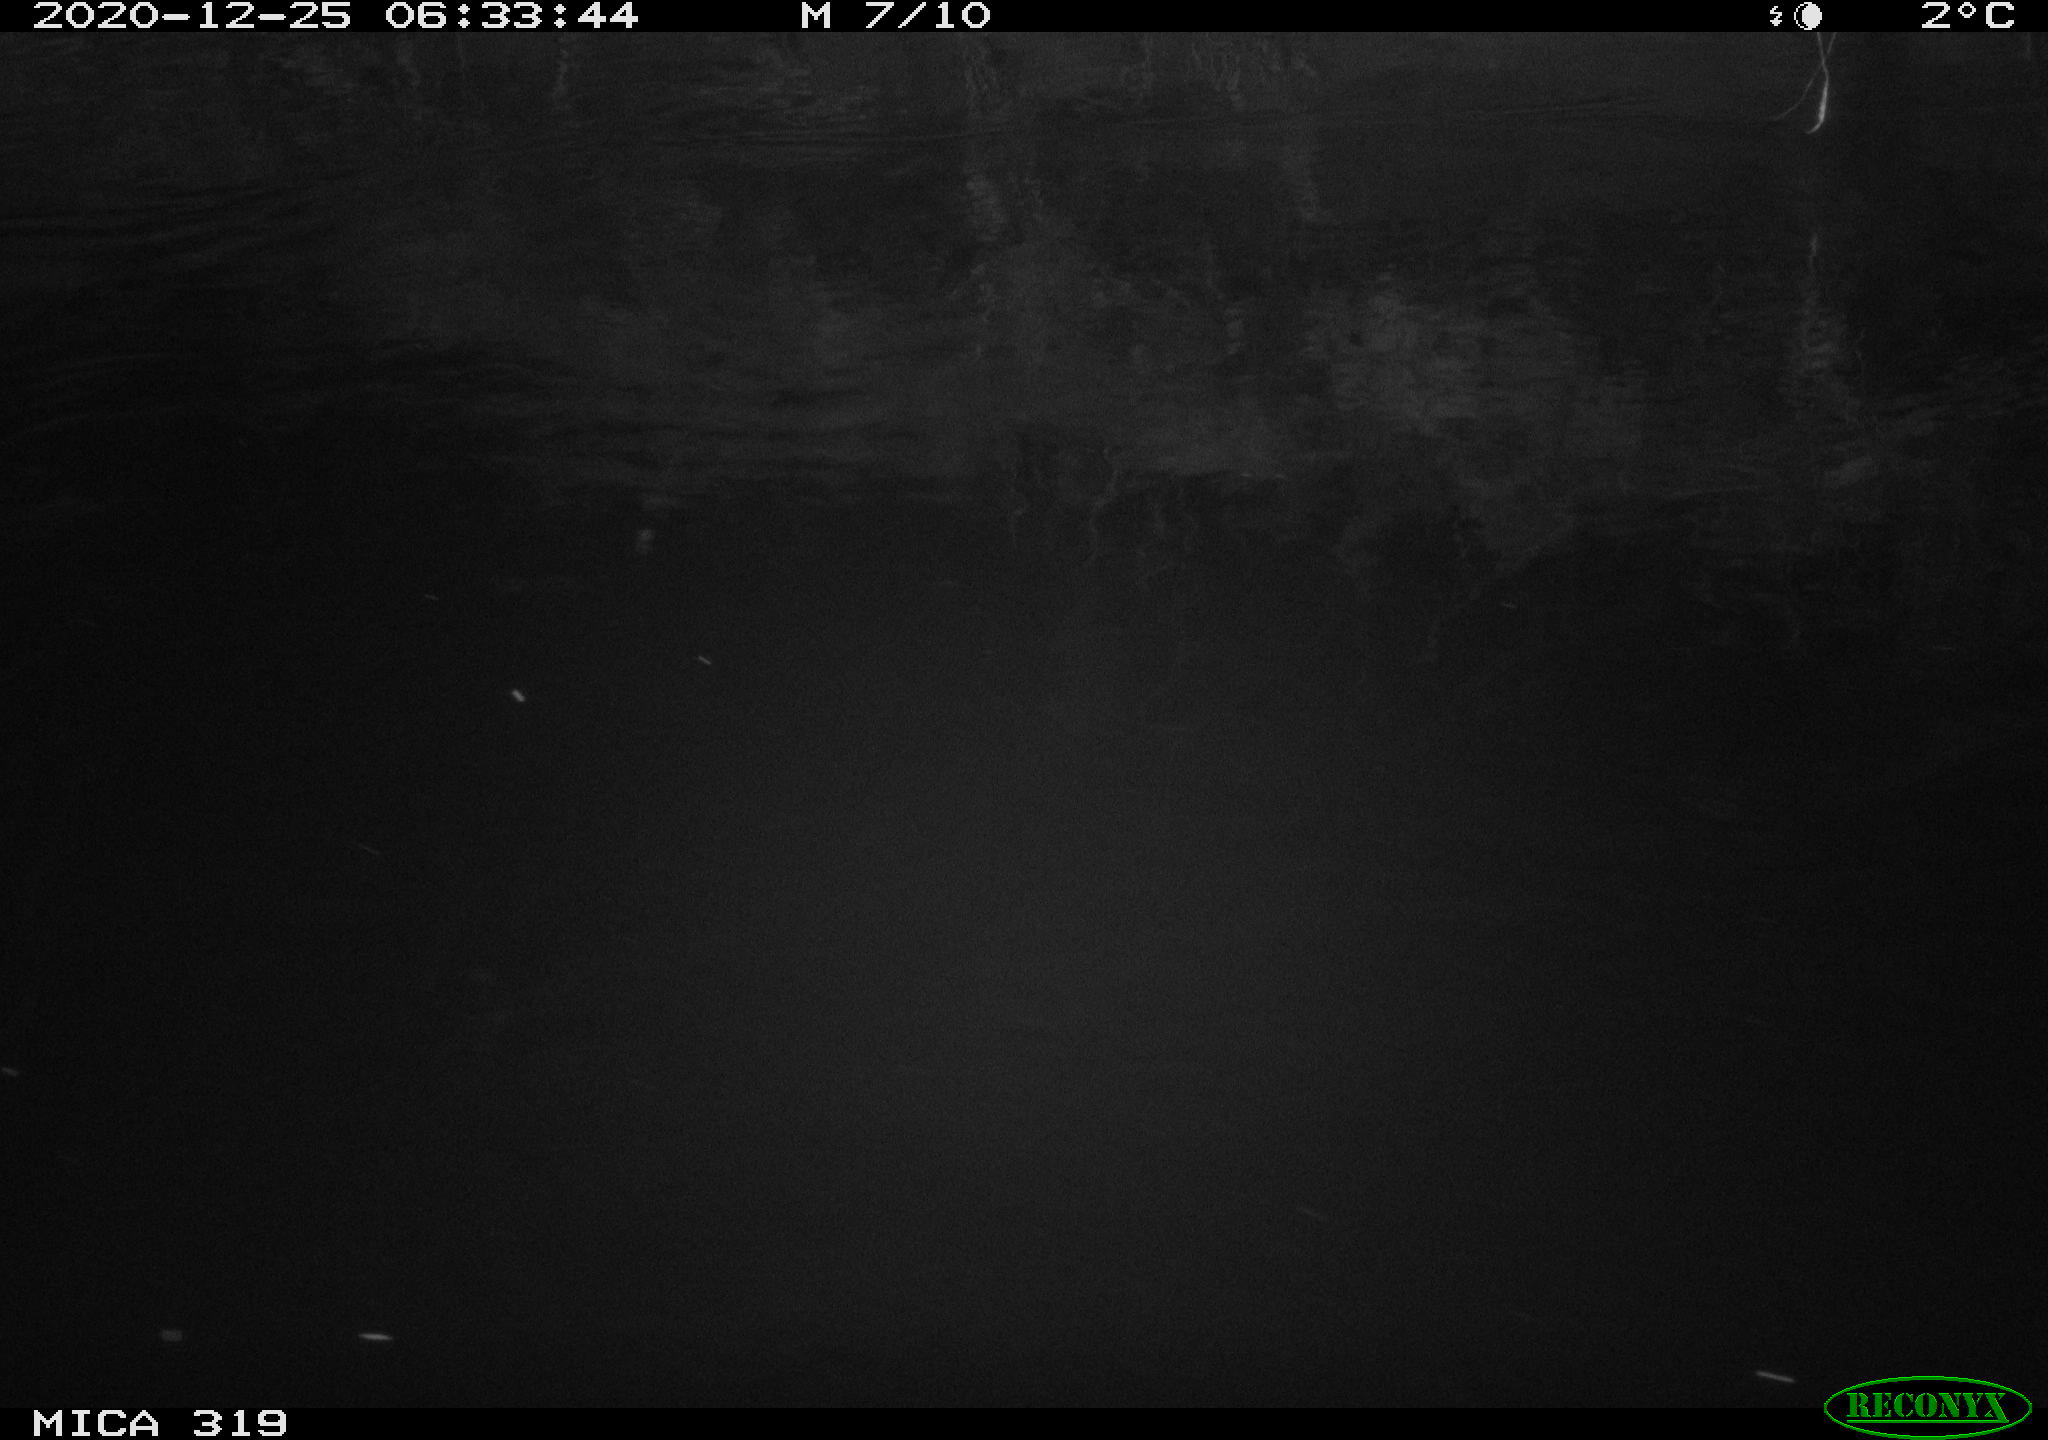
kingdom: Animalia
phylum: Chordata
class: Aves
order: Anseriformes
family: Anatidae
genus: Anas
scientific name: Anas platyrhynchos
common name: Mallard
